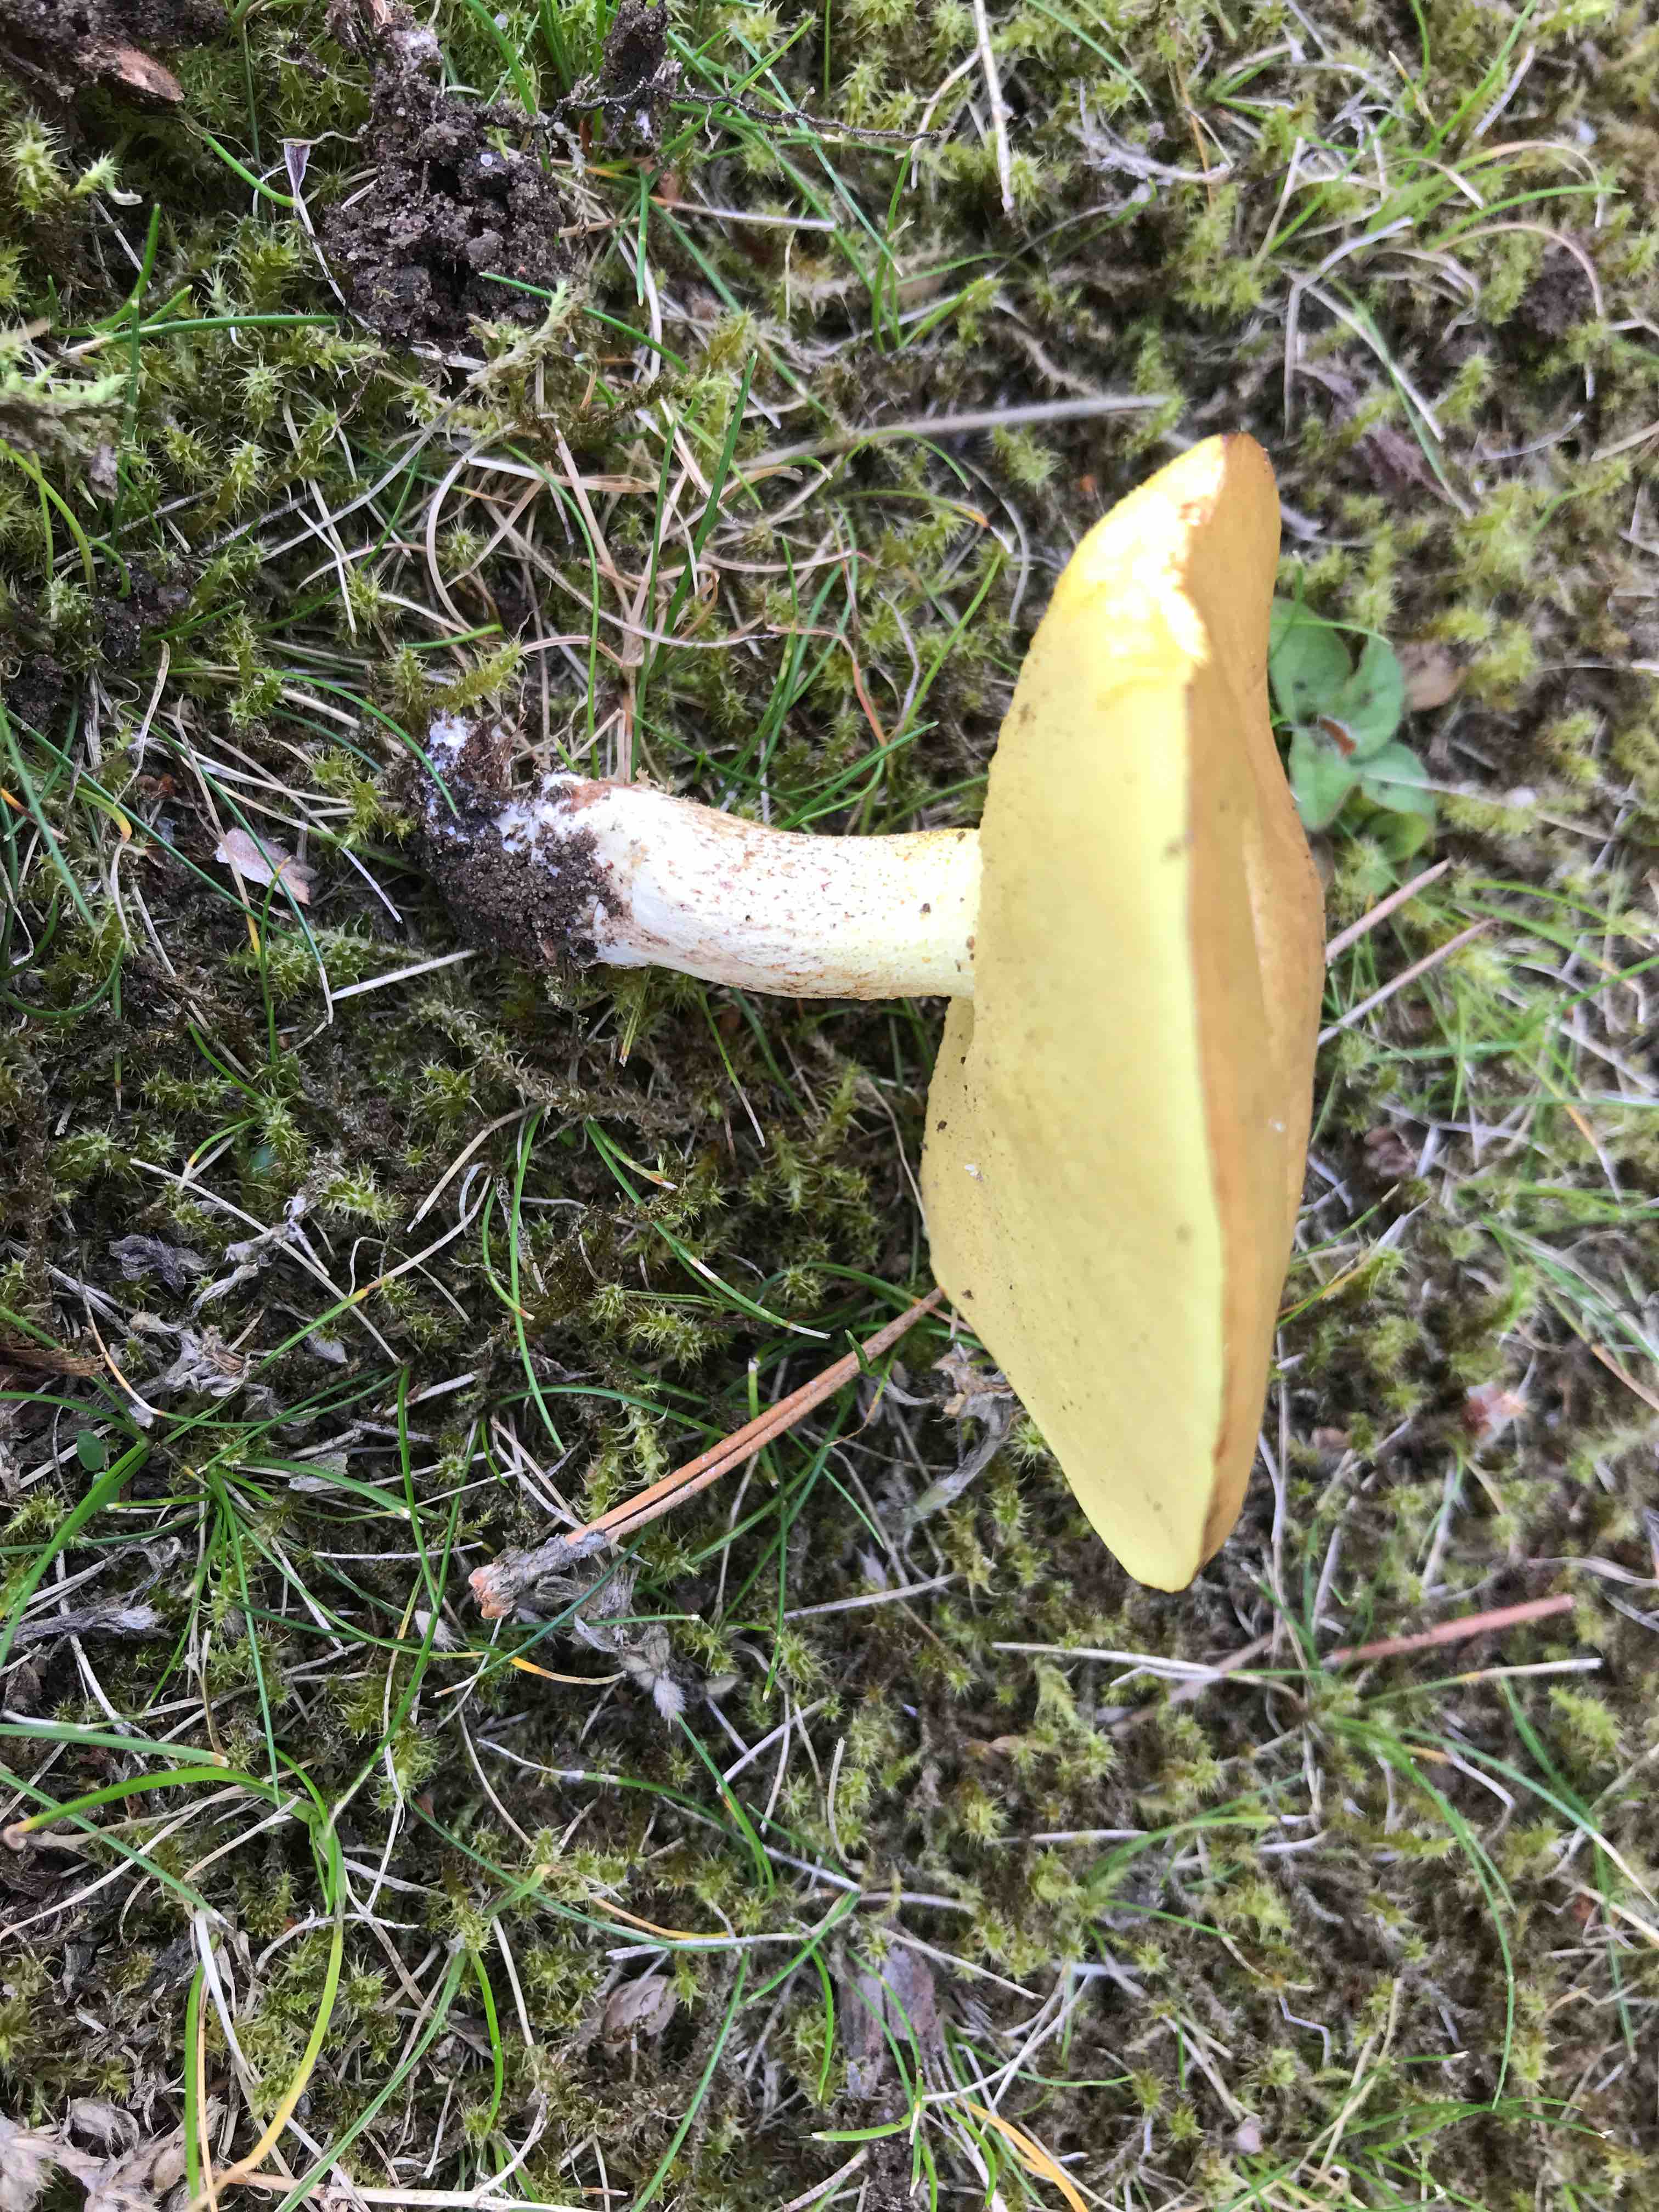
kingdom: Fungi
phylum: Basidiomycota
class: Agaricomycetes
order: Boletales
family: Suillaceae
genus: Suillus
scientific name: Suillus granulatus
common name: kornet slimrørhat
